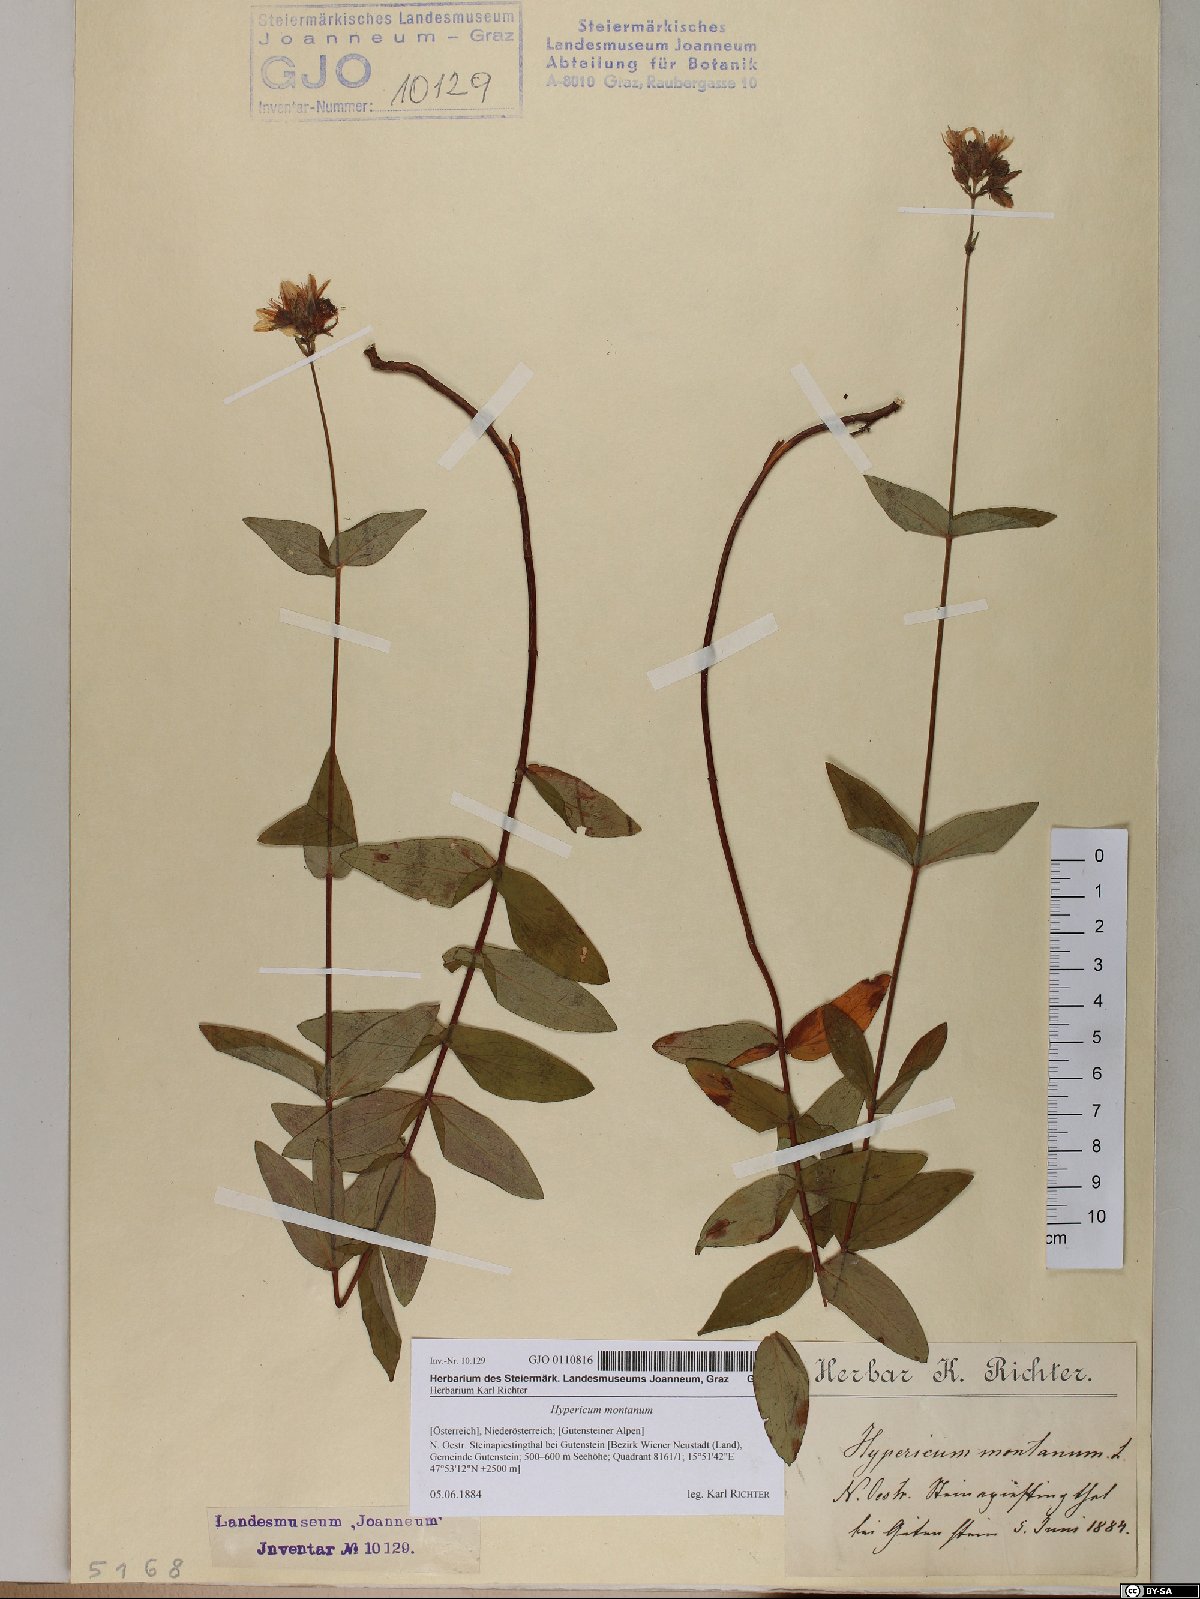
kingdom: Plantae
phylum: Tracheophyta
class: Magnoliopsida
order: Malpighiales
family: Hypericaceae
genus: Hypericum
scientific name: Hypericum montanum
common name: Pale st. john's-wort
